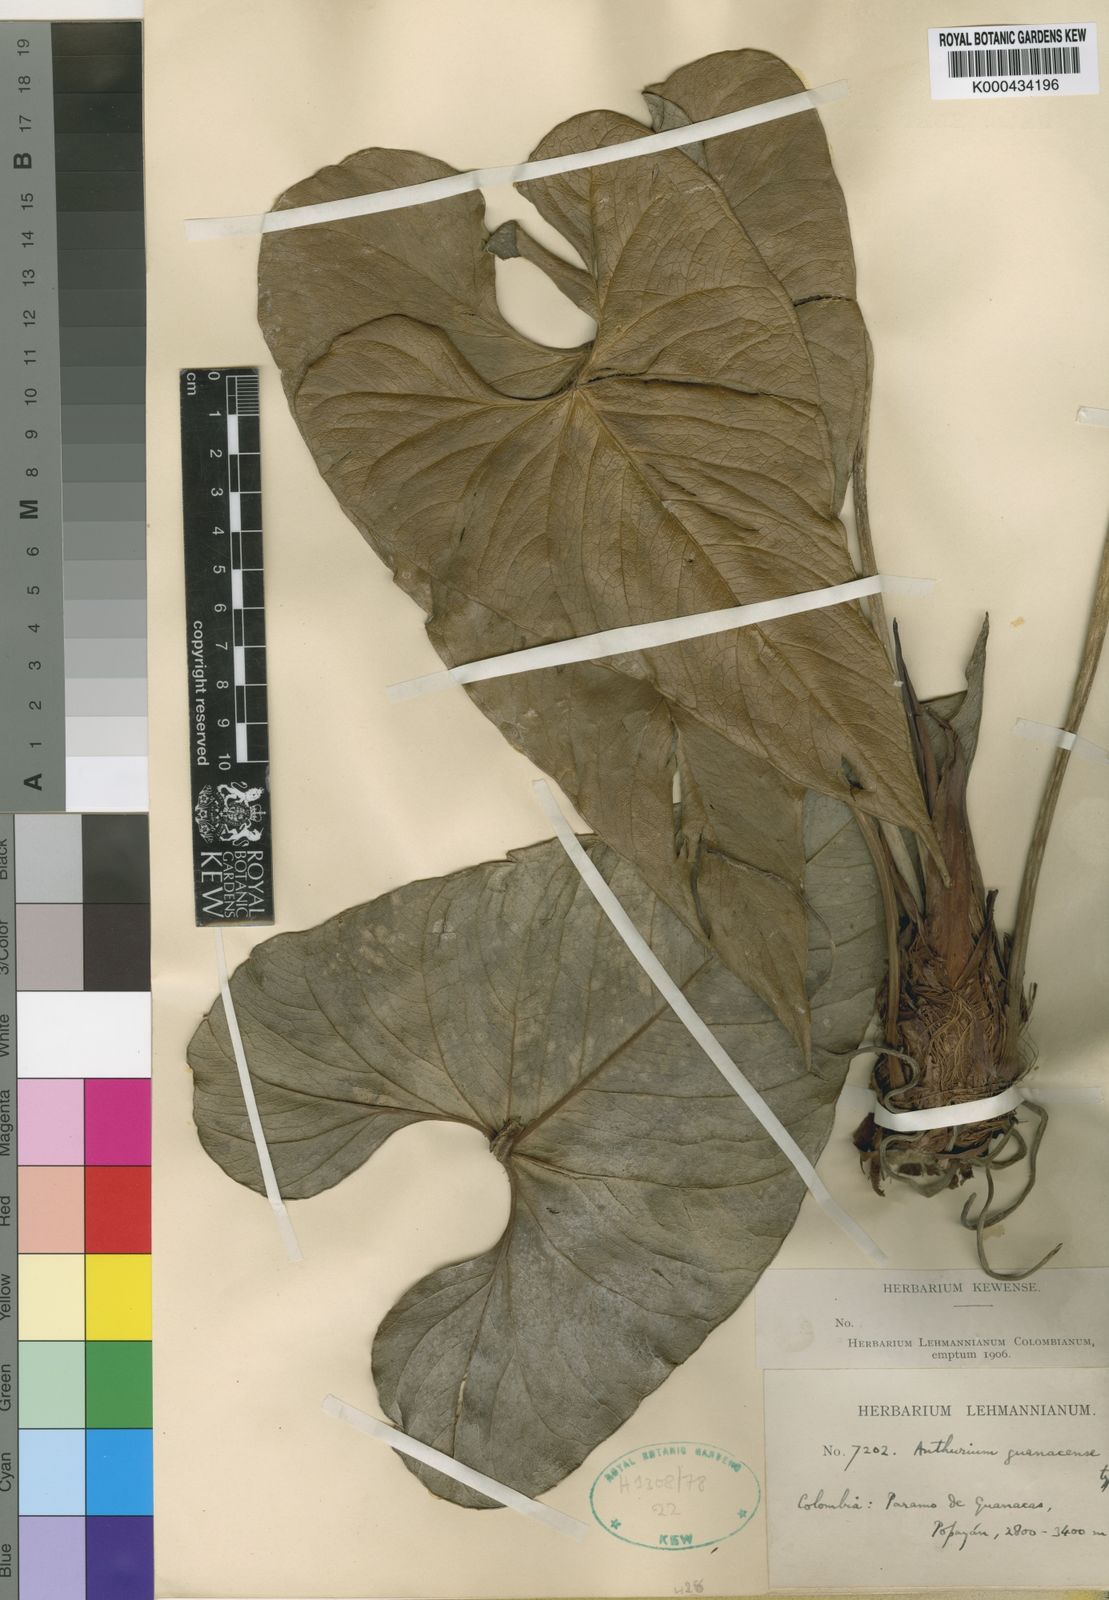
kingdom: Plantae
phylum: Tracheophyta
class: Liliopsida
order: Alismatales
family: Araceae
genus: Anthurium
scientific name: Anthurium guanacense
